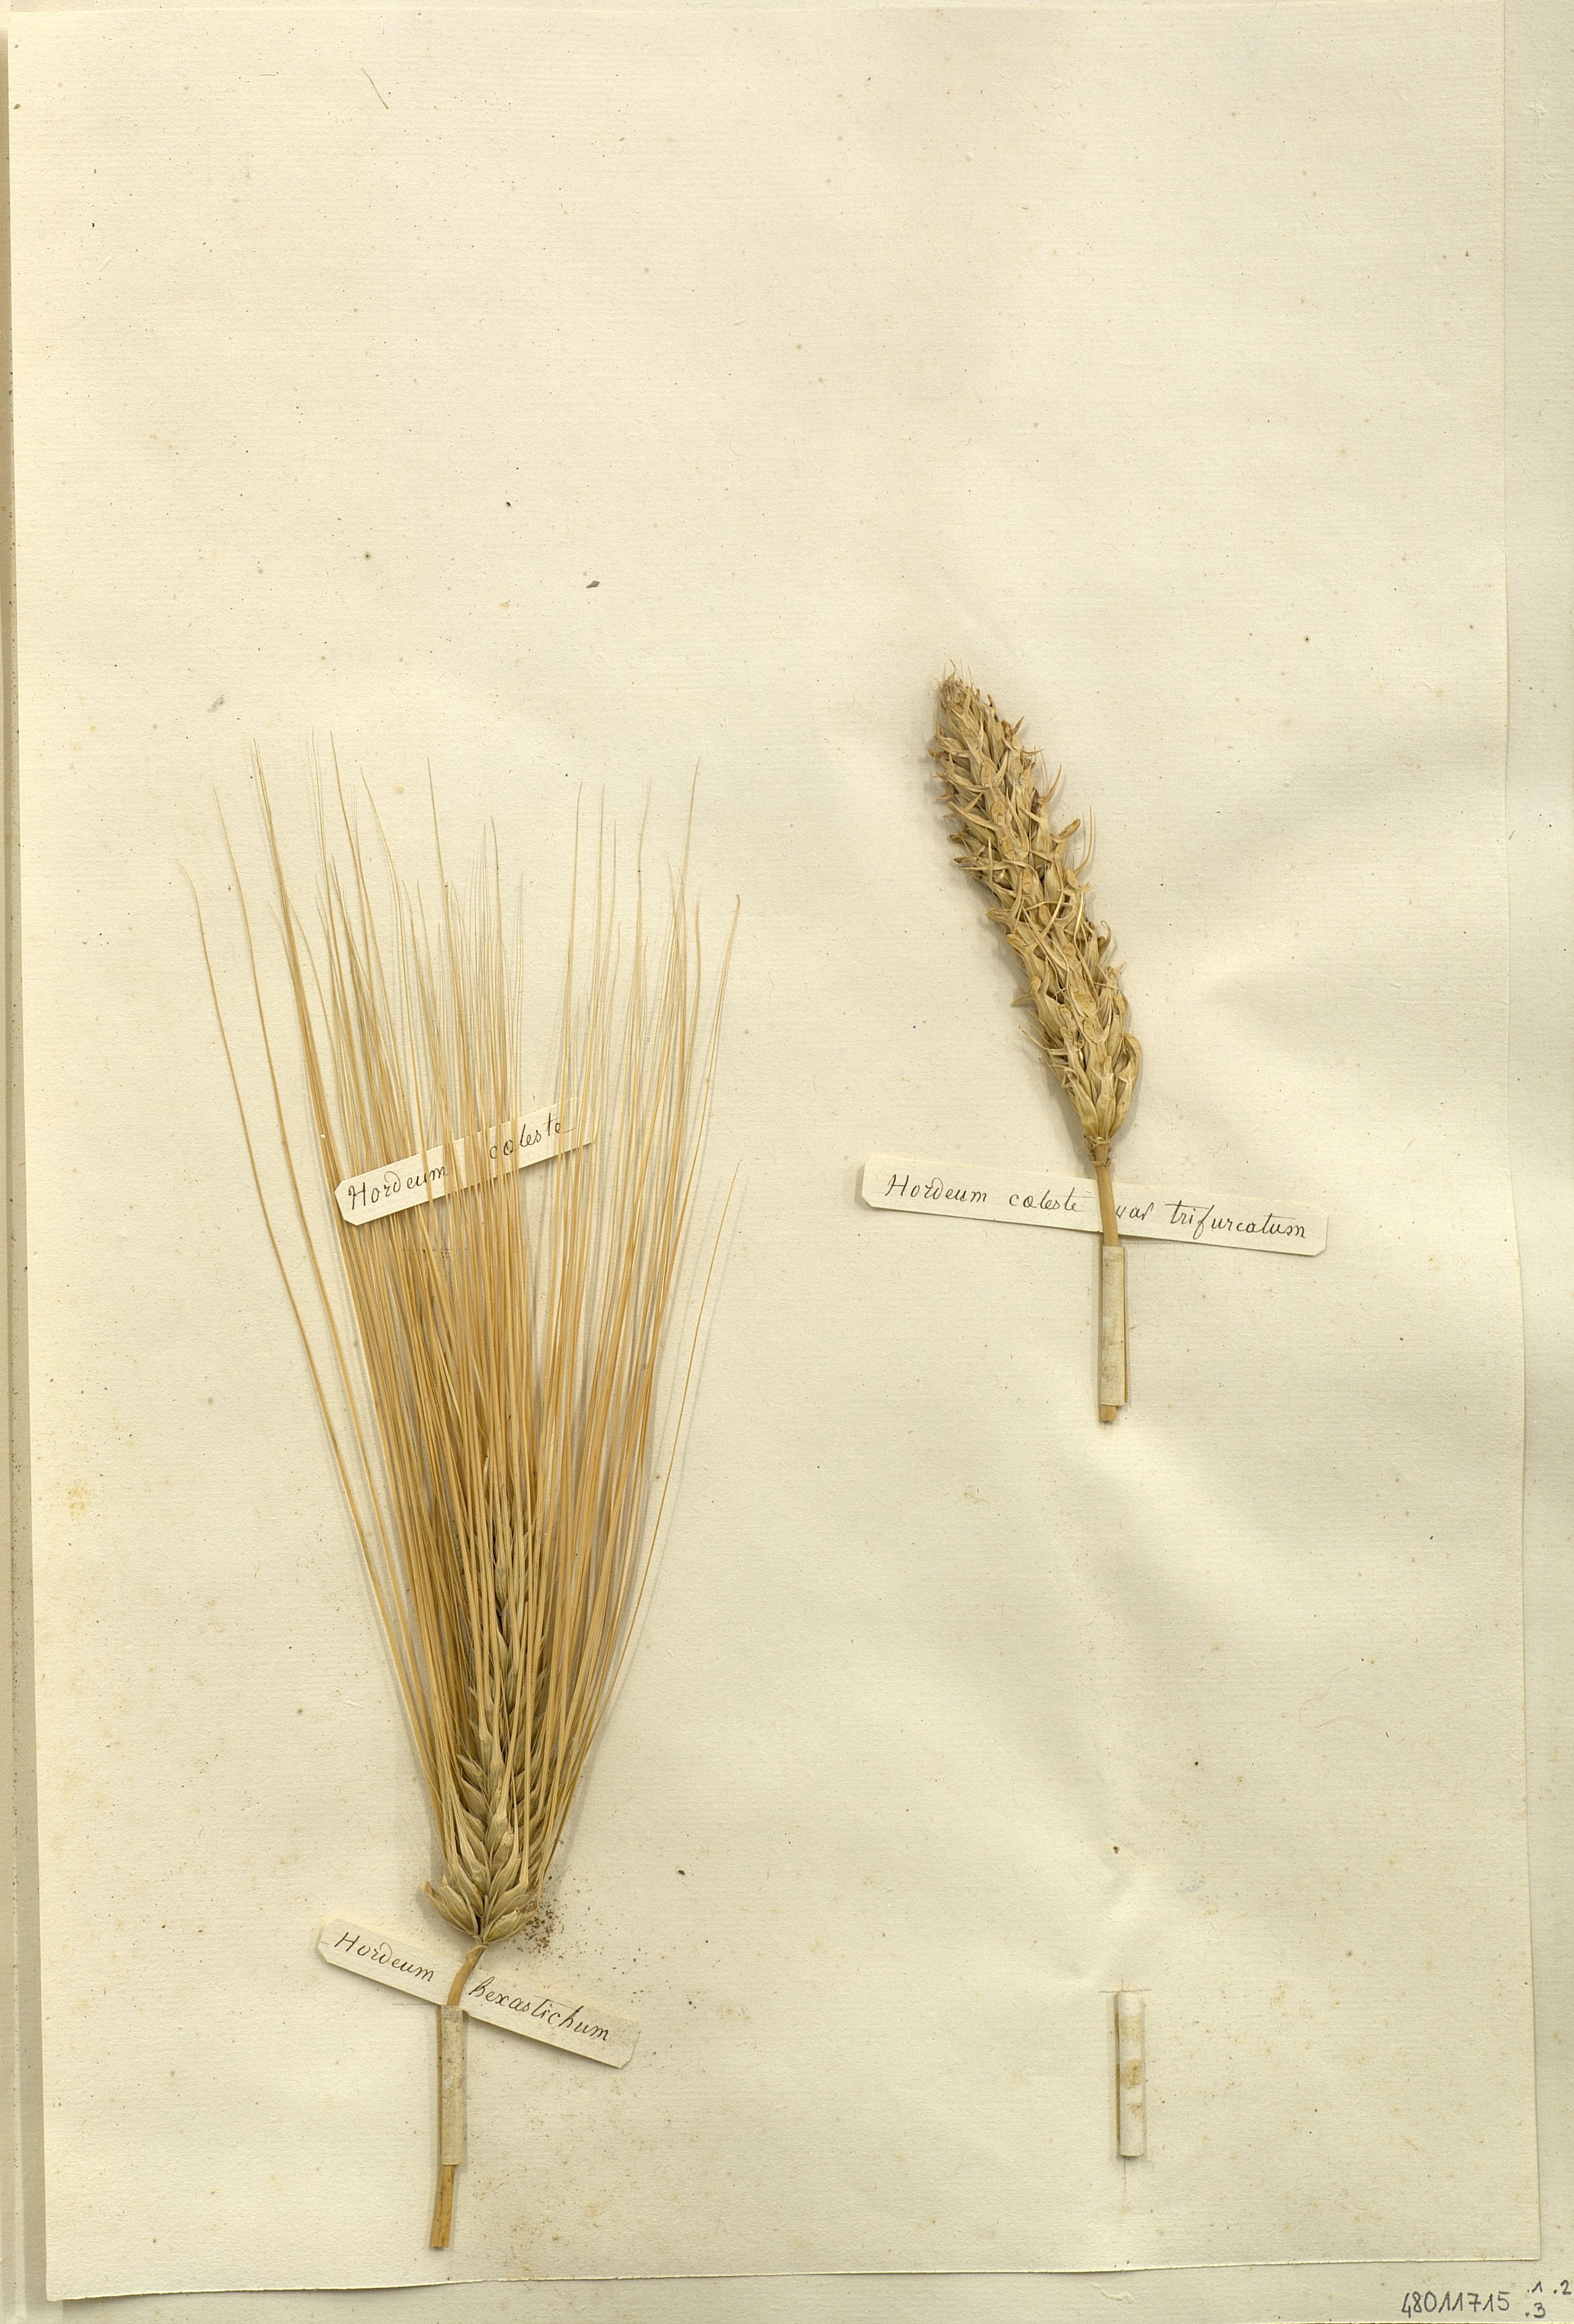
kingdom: Plantae
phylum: Tracheophyta
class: Liliopsida
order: Poales
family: Poaceae
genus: Hordeum
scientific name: Hordeum coeleste
